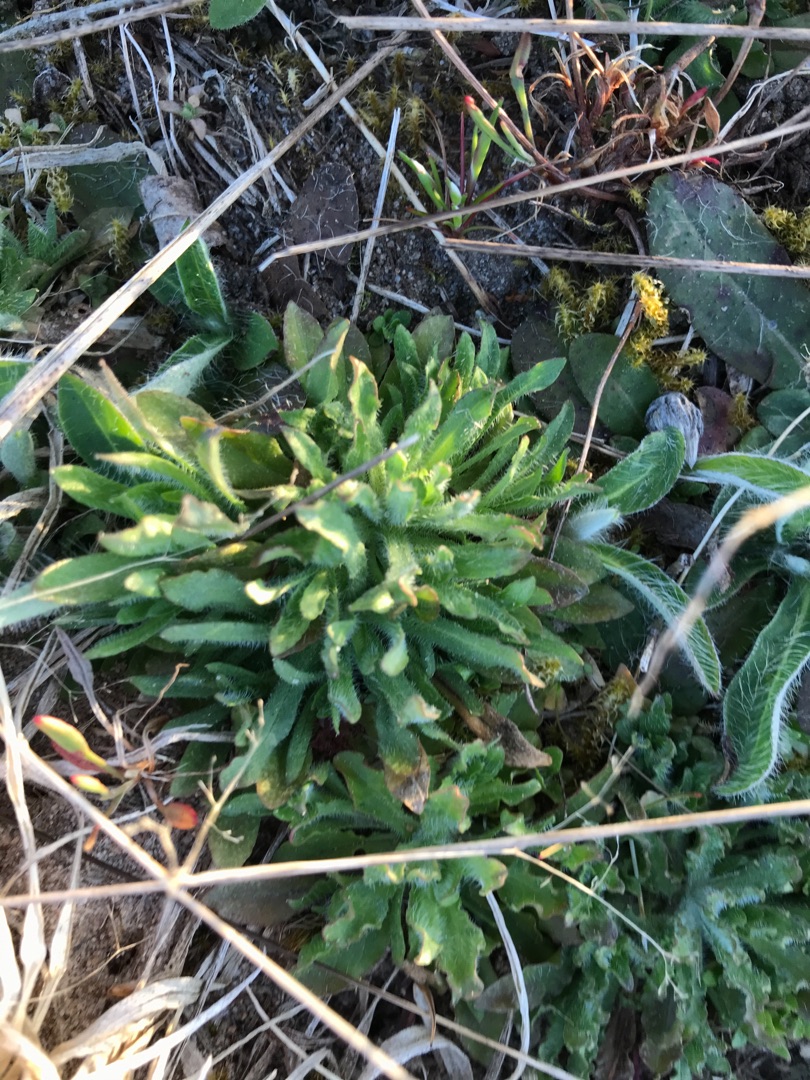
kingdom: Plantae
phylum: Tracheophyta
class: Magnoliopsida
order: Asterales
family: Campanulaceae
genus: Jasione
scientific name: Jasione montana
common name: Blåmunke
